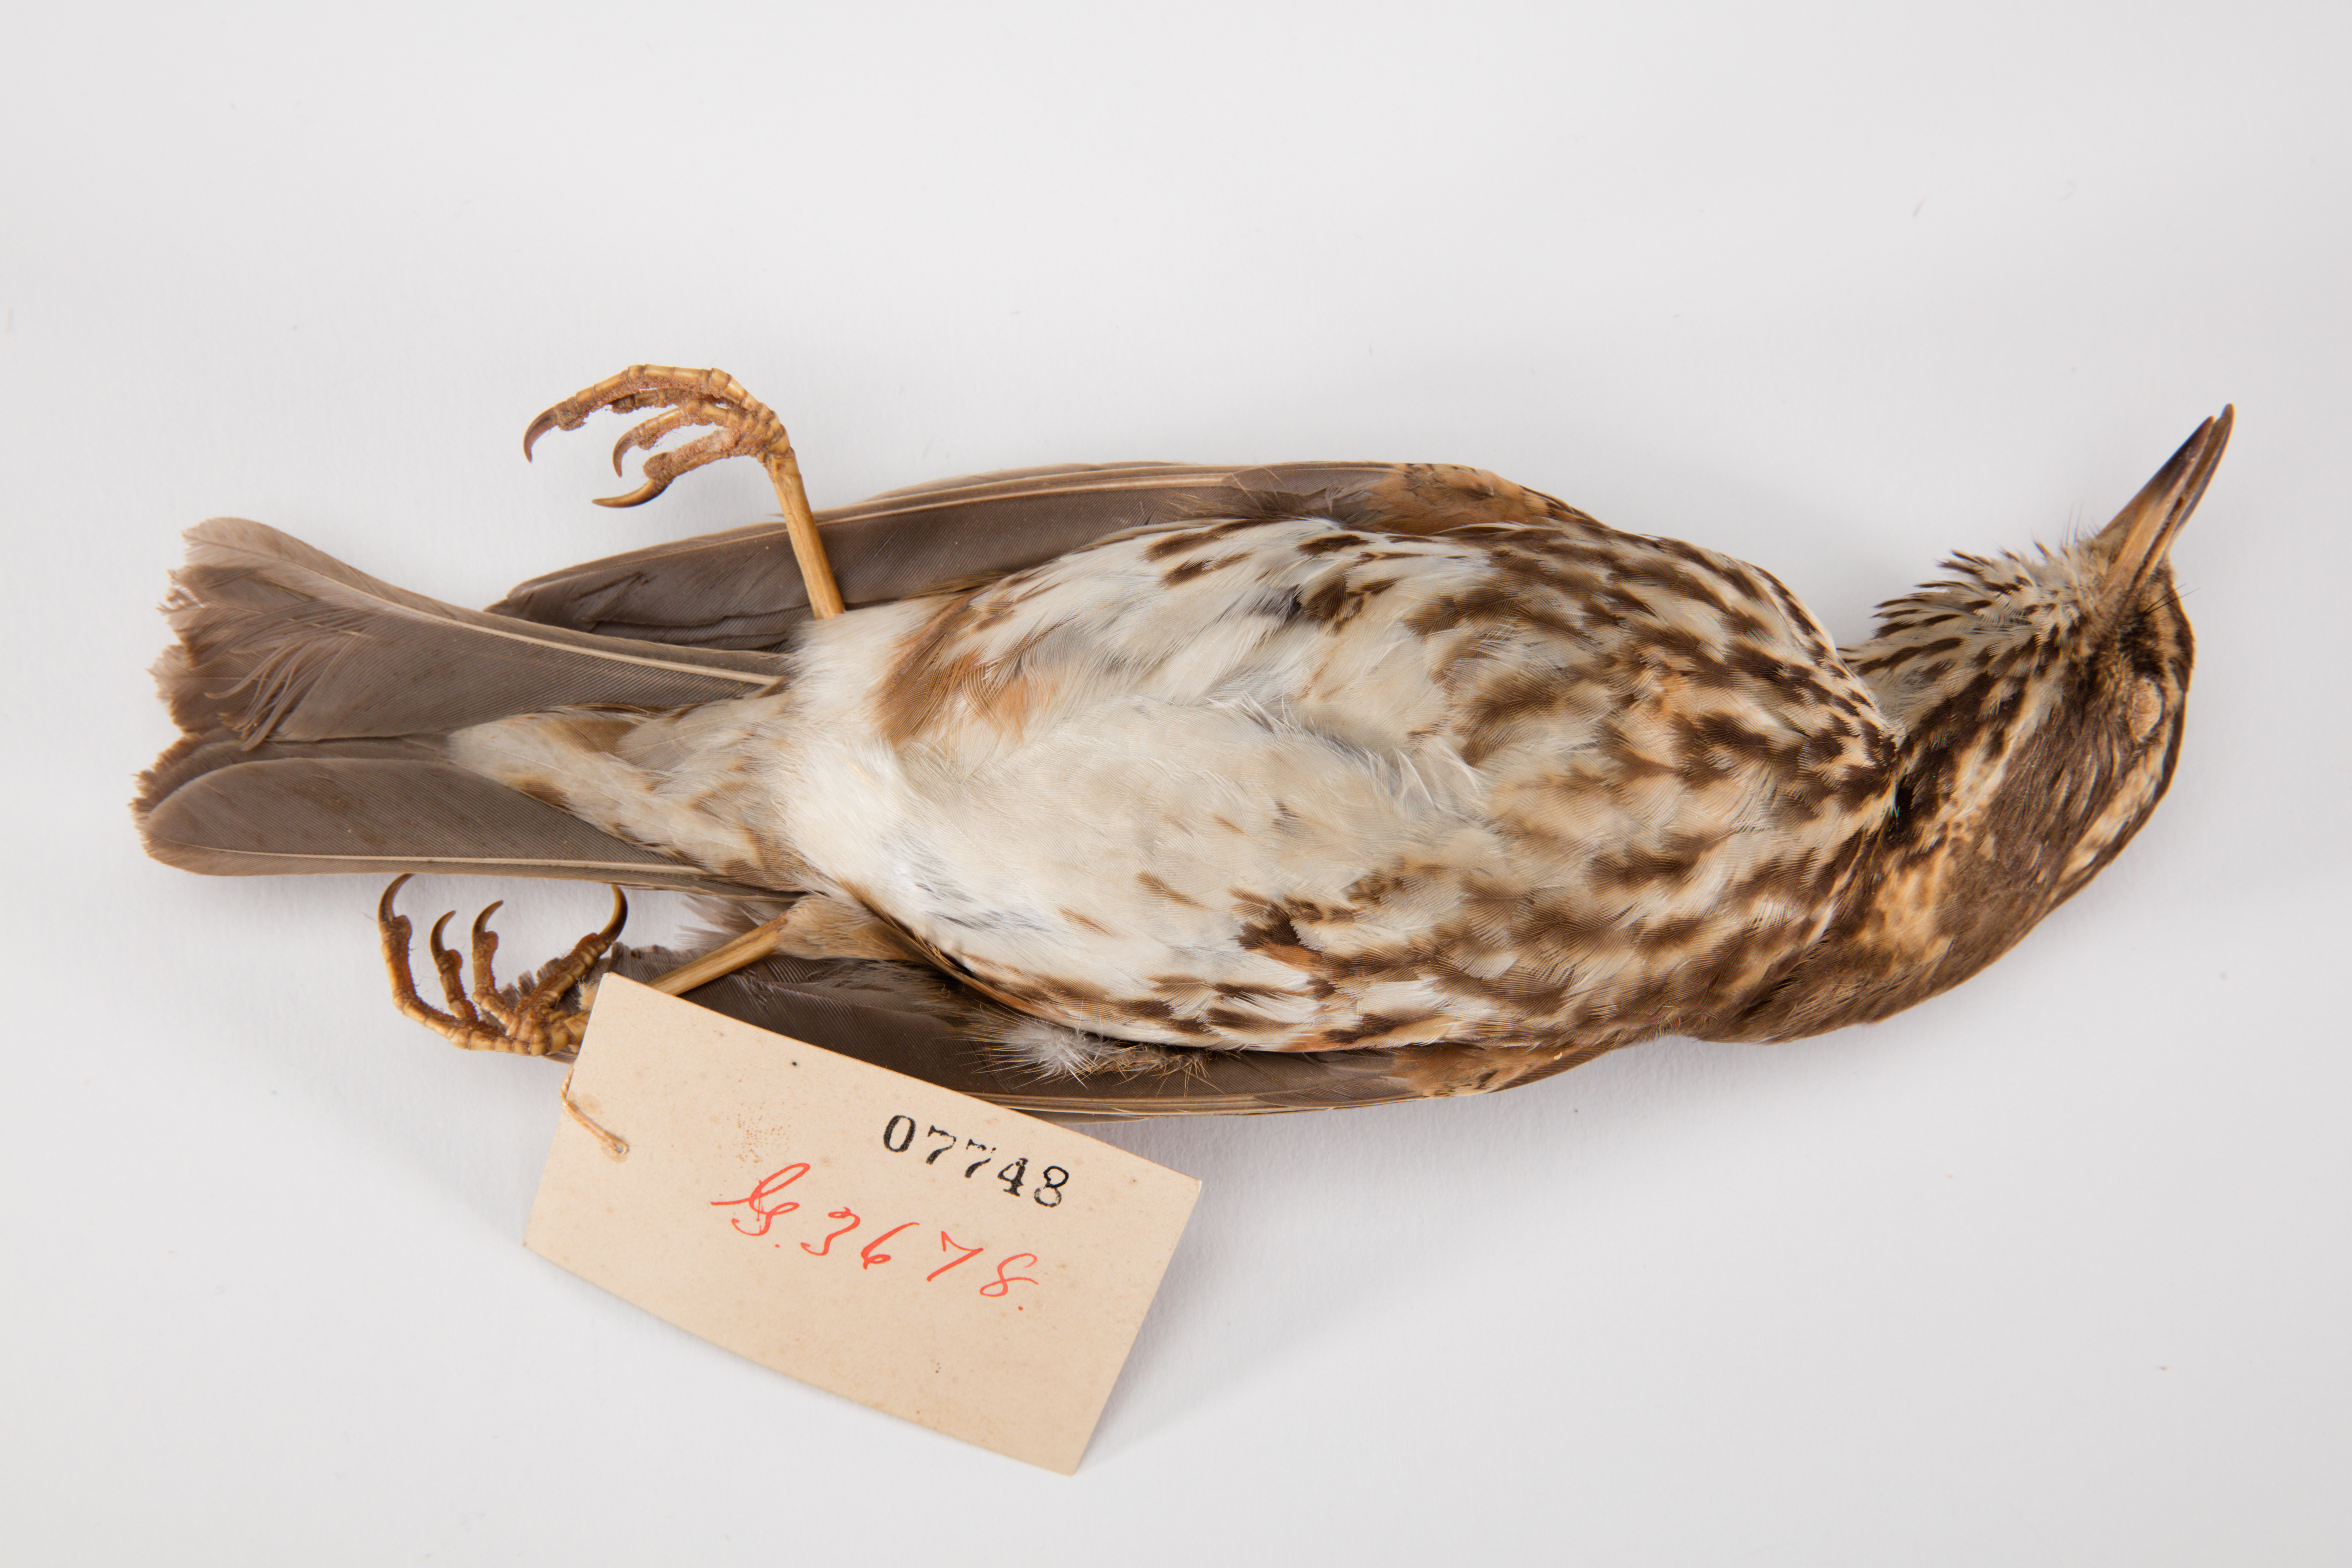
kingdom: Animalia
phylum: Chordata
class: Aves
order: Passeriformes
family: Turdidae
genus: Turdus
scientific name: Turdus iliacus
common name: Redwing
